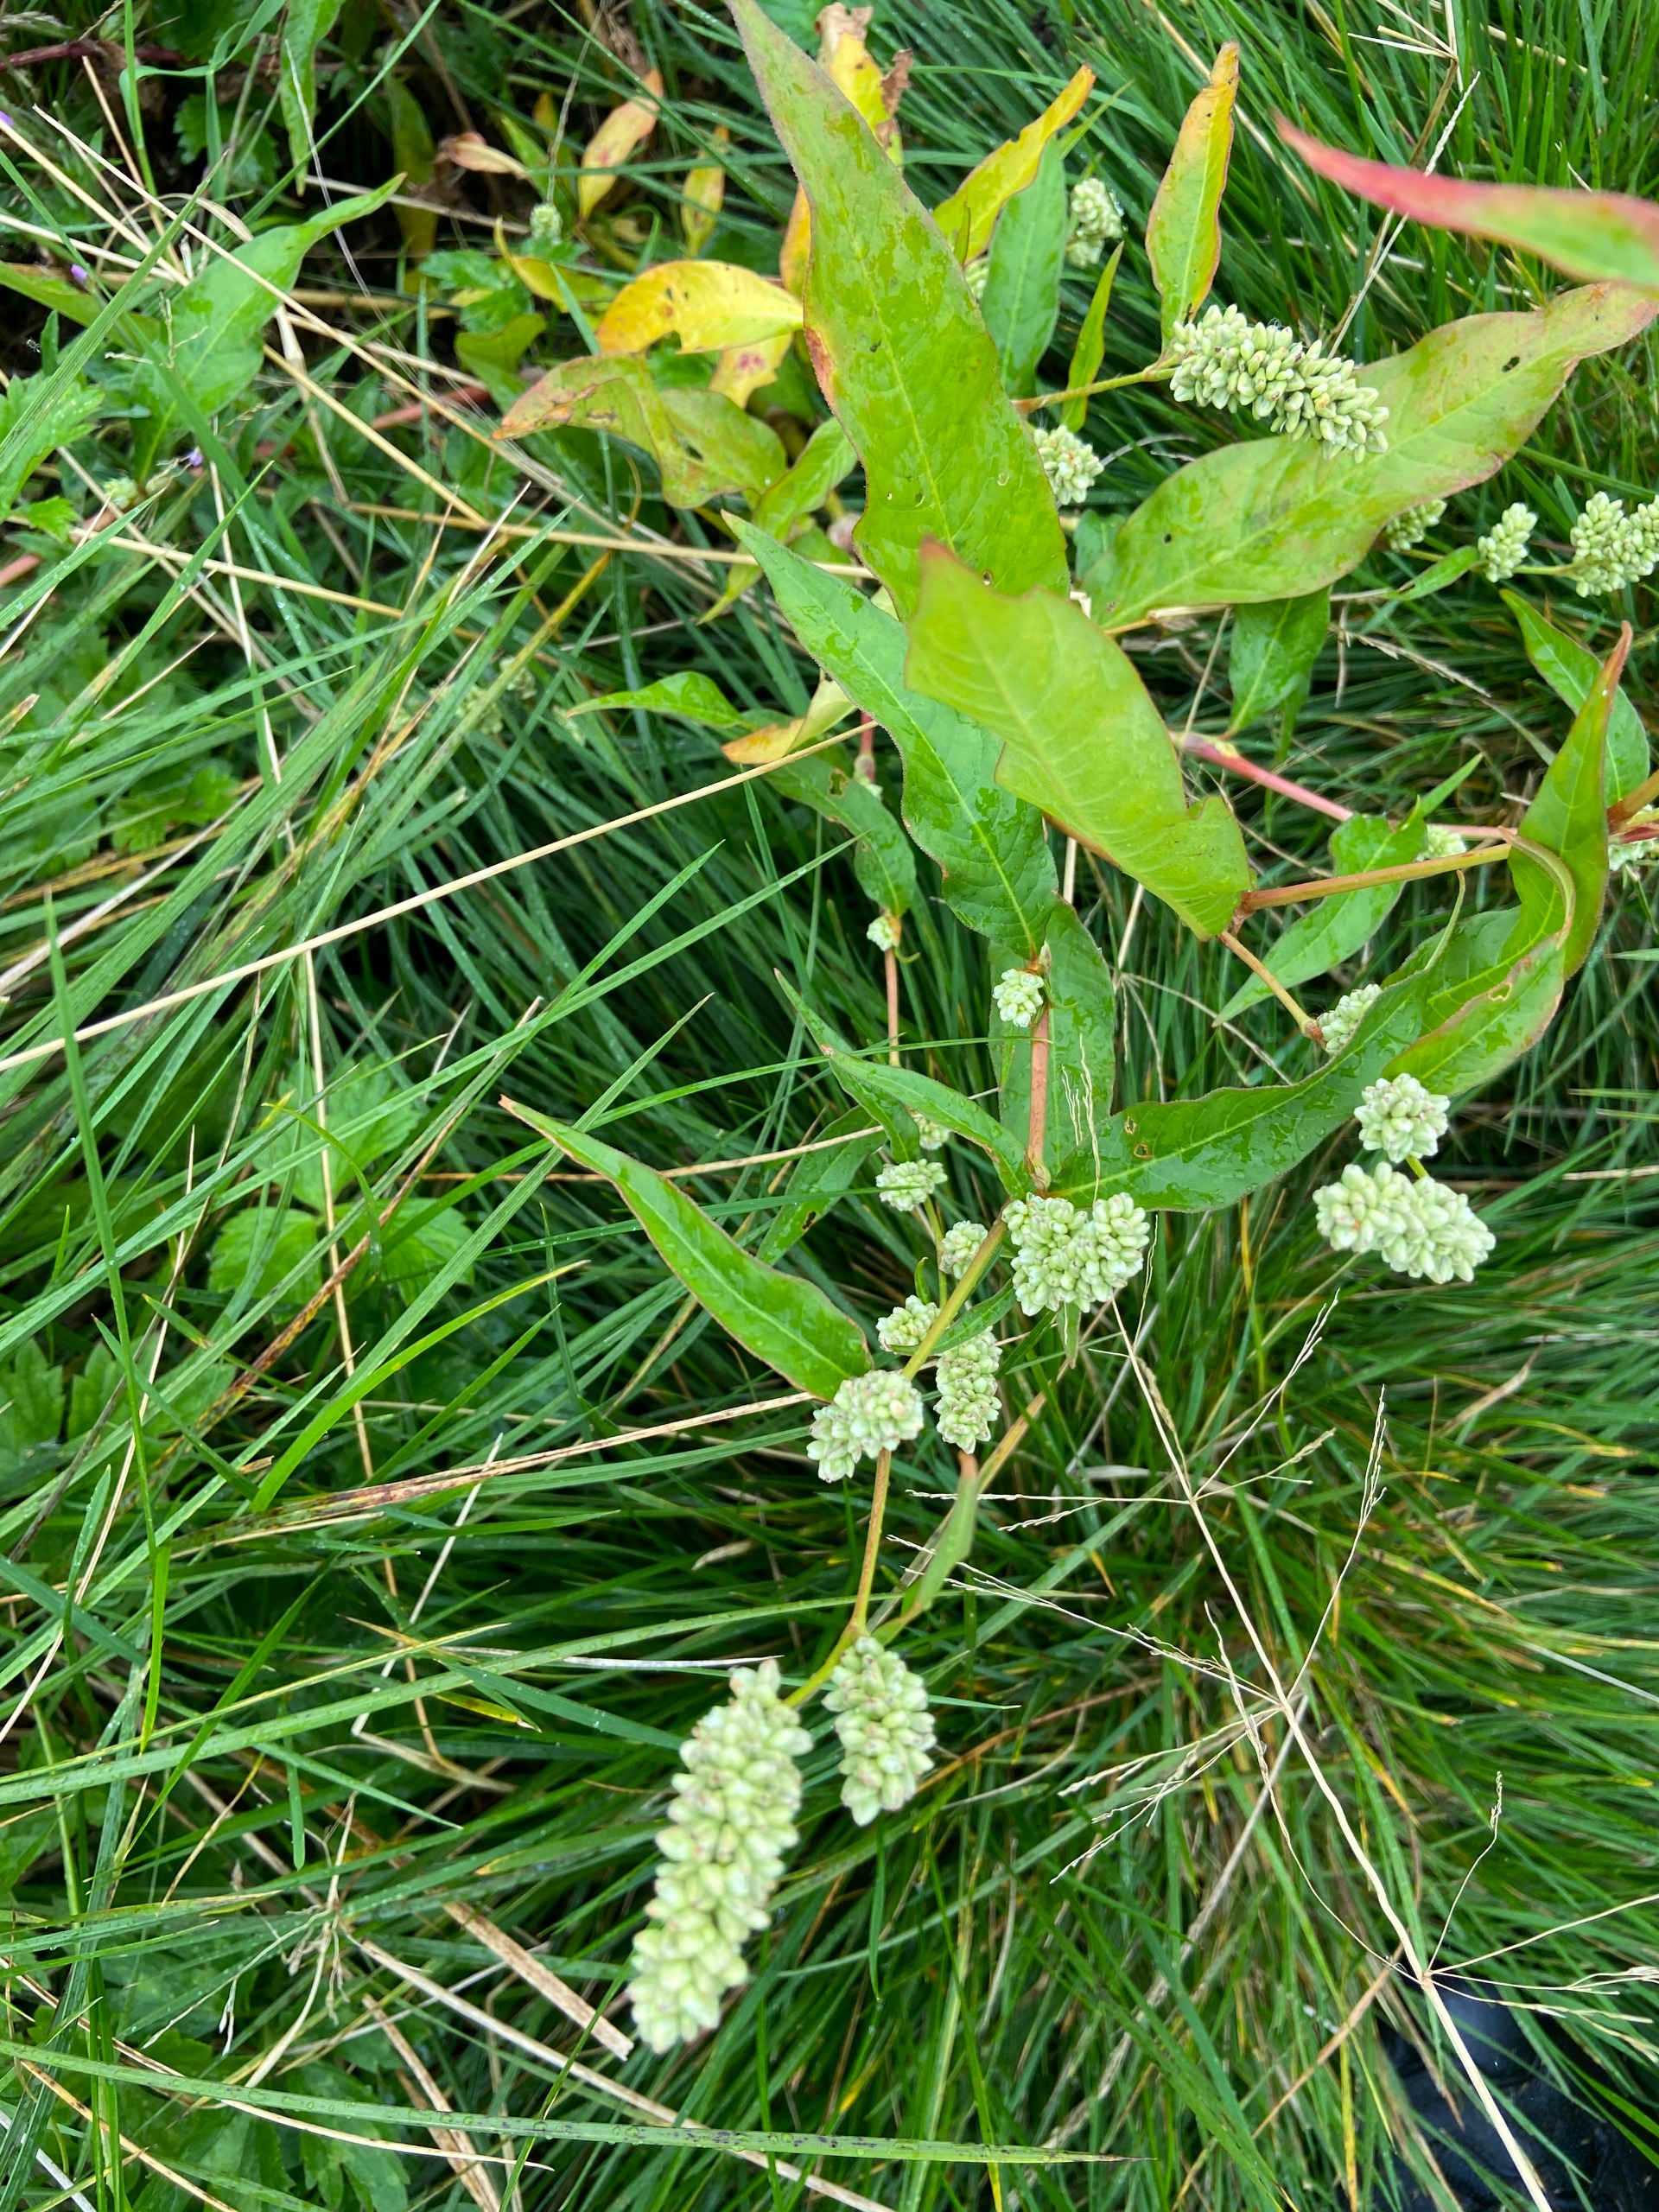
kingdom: Plantae
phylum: Tracheophyta
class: Magnoliopsida
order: Caryophyllales
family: Polygonaceae
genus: Persicaria
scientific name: Persicaria lapathifolia
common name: Bleg pileurt
